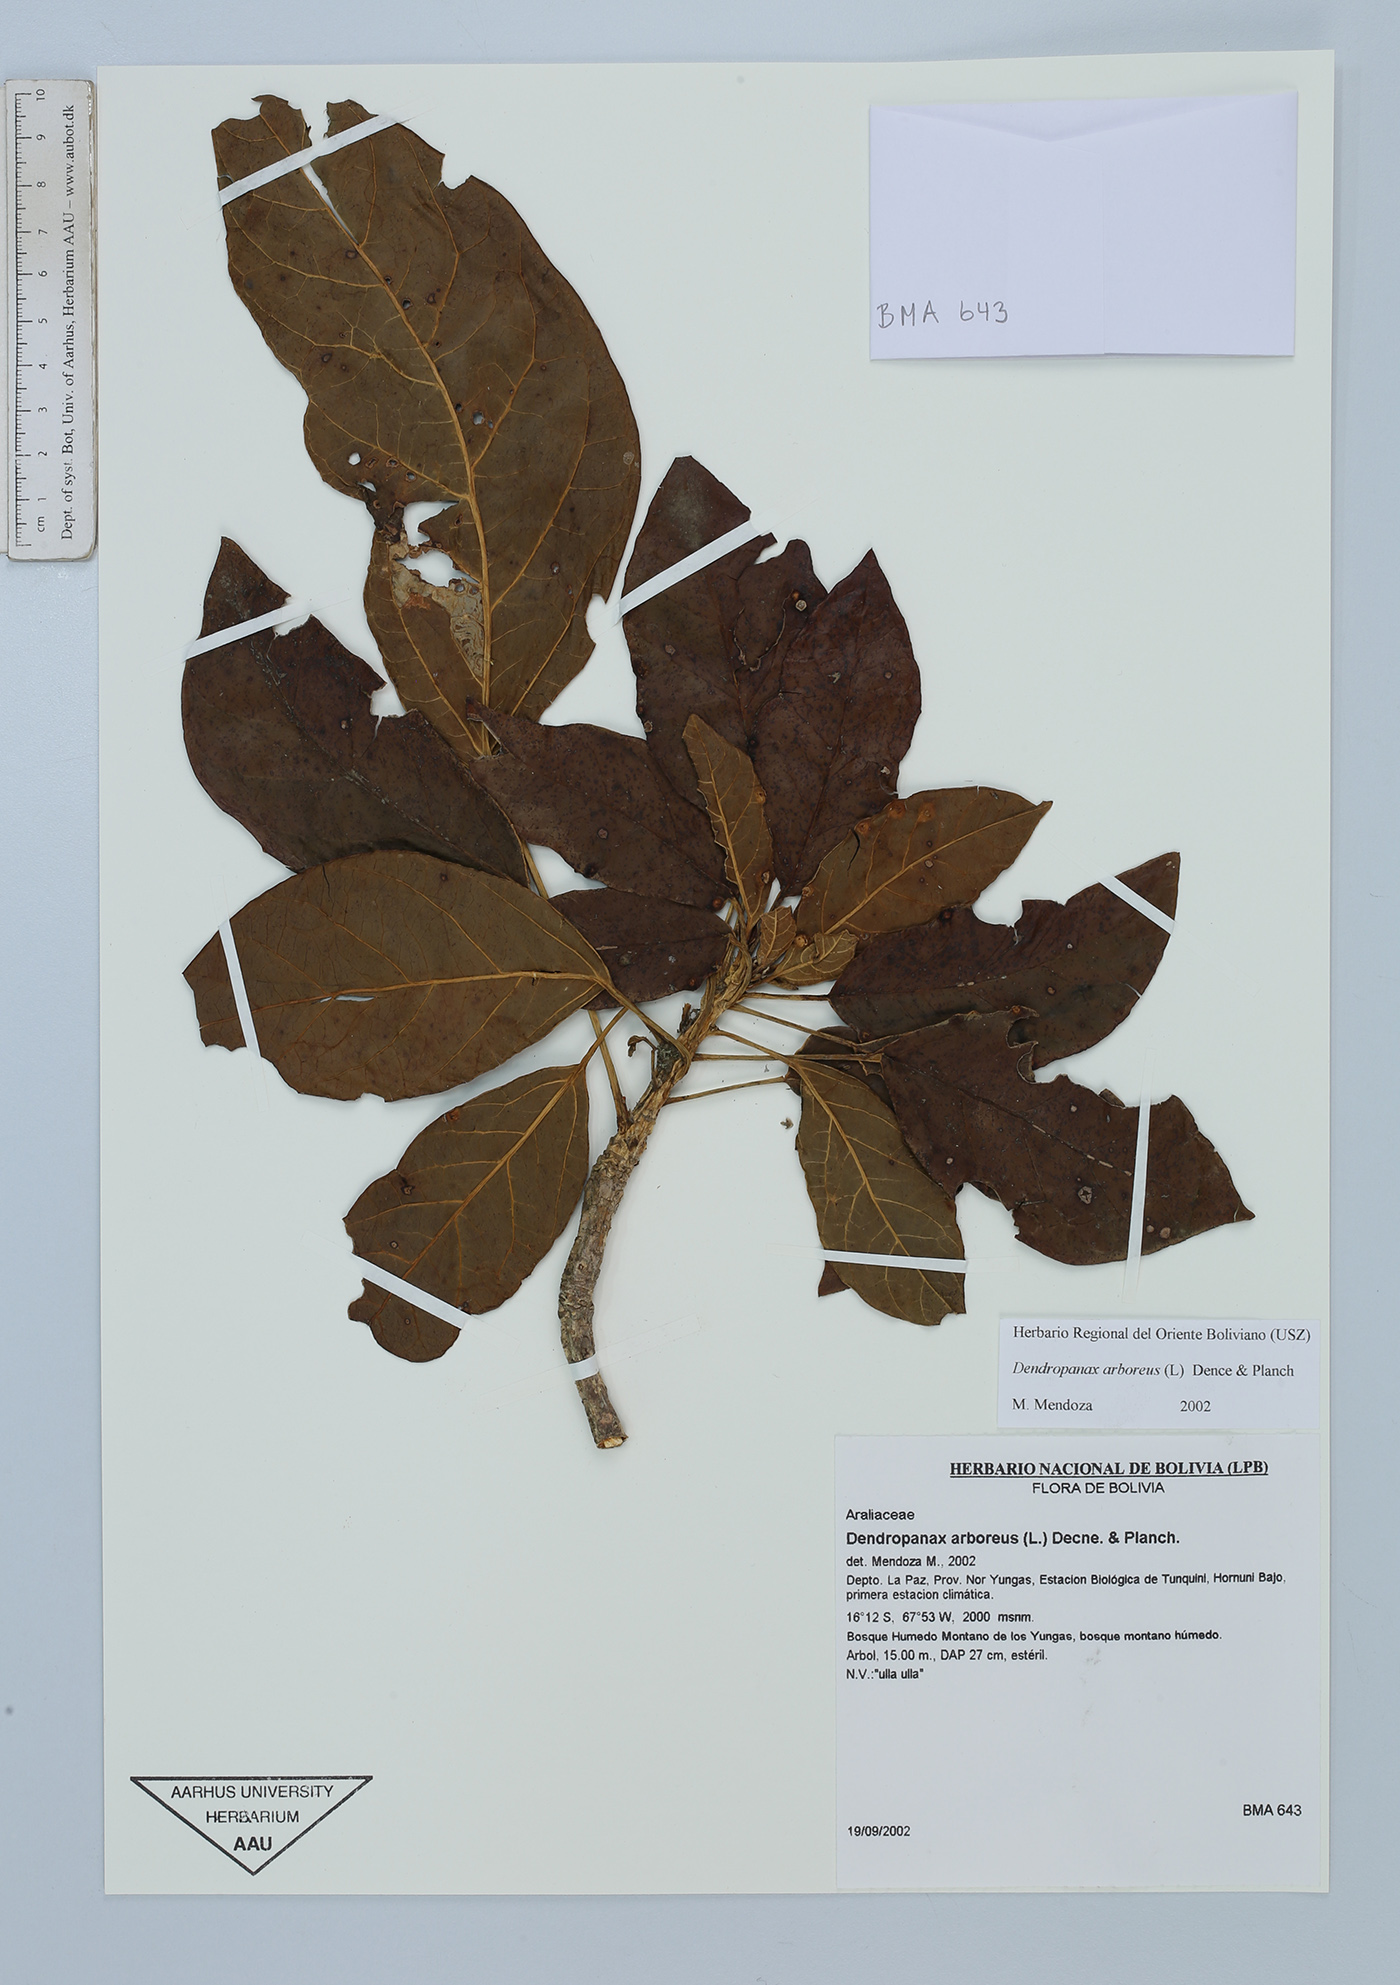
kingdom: Plantae
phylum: Tracheophyta
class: Magnoliopsida
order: Apiales
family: Araliaceae
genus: Dendropanax
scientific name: Dendropanax arboreus
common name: Potato-wood
